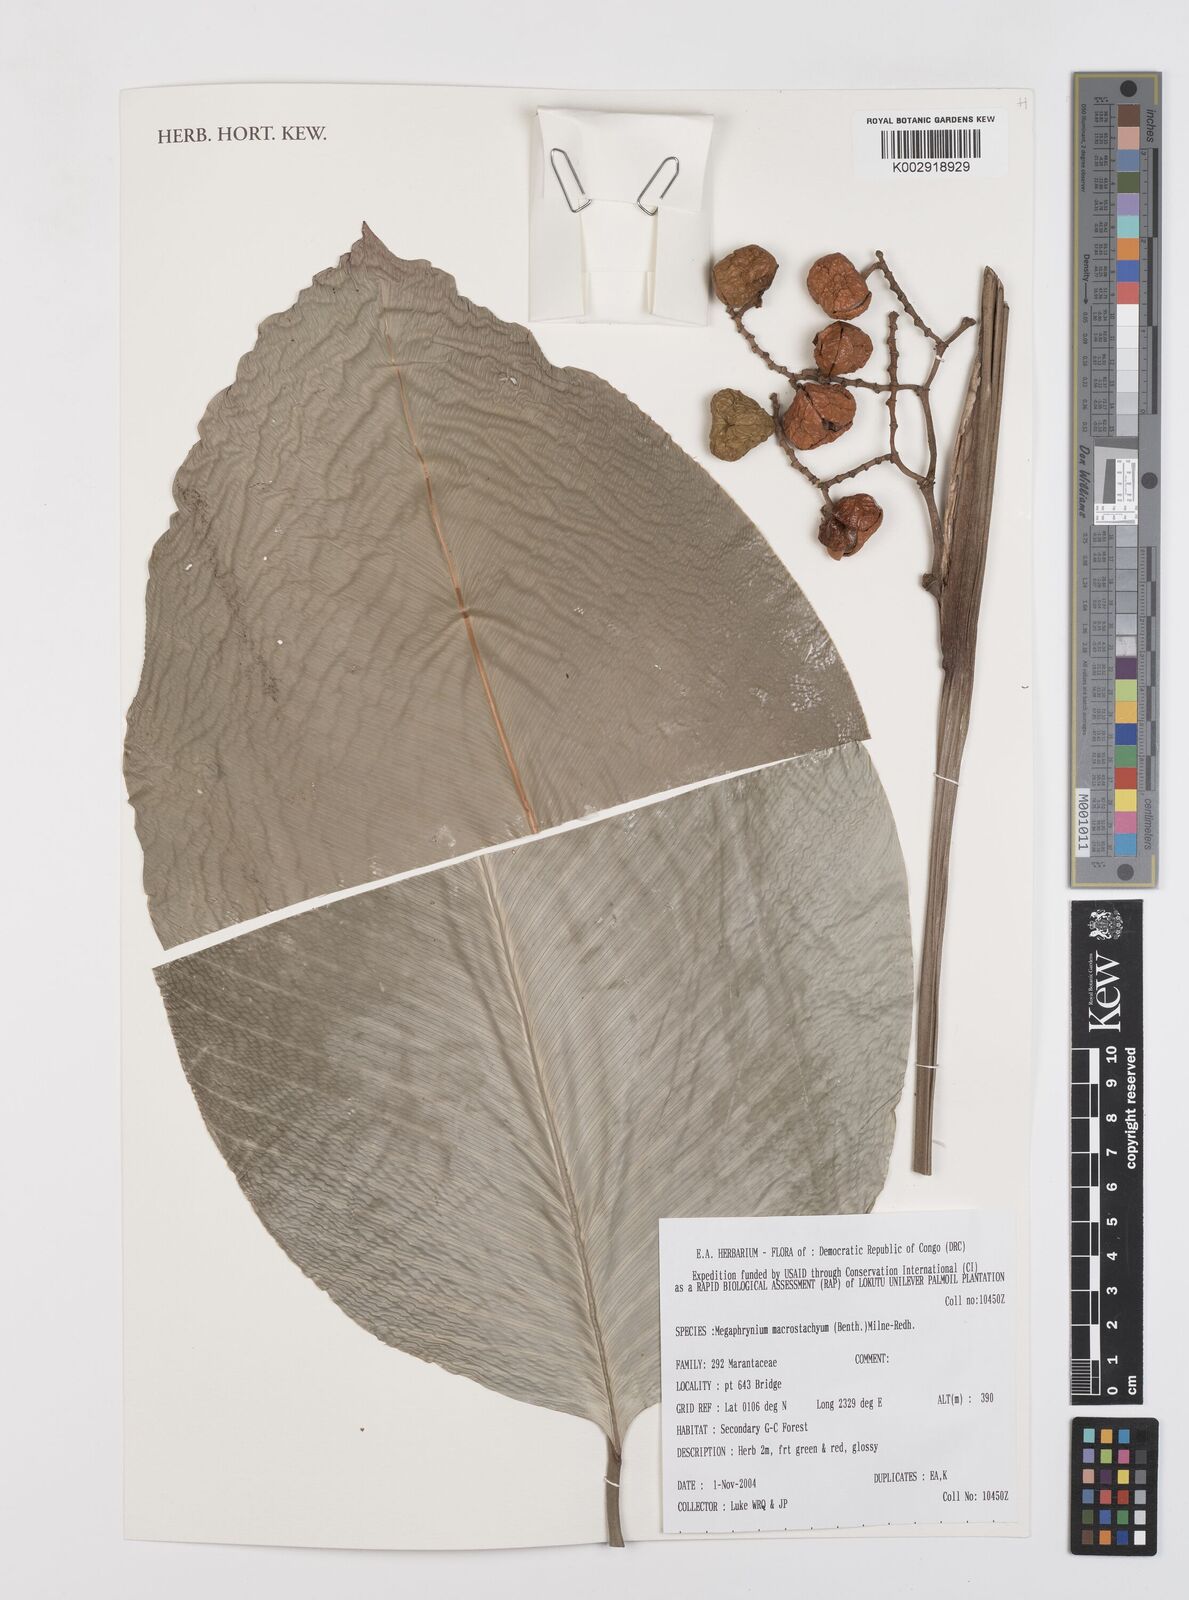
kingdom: Plantae
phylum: Tracheophyta
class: Liliopsida
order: Zingiberales
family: Marantaceae
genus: Megaphrynium
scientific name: Megaphrynium macrostachyum
